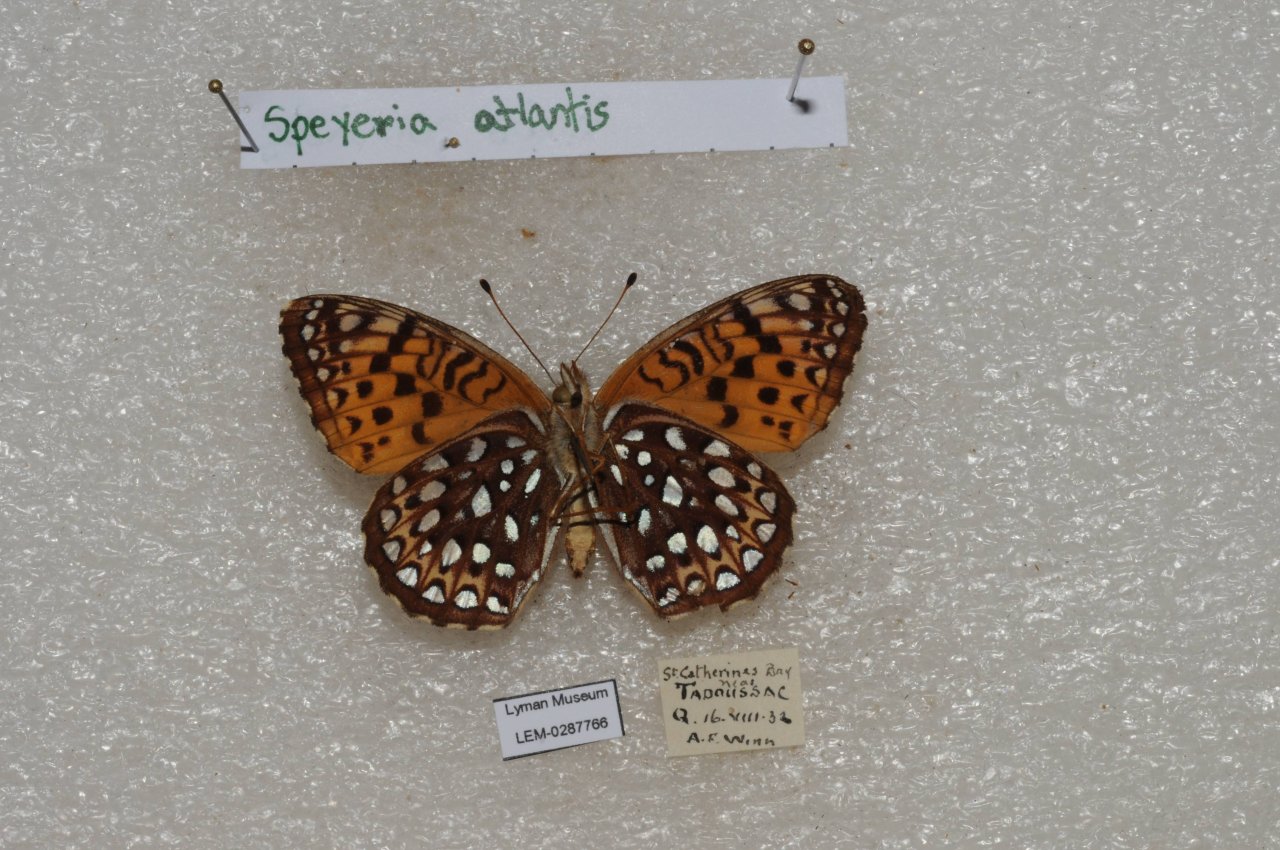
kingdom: Animalia
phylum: Arthropoda
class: Insecta
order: Lepidoptera
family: Nymphalidae
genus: Speyeria
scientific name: Speyeria atlantis
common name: Atlantis Fritillary
